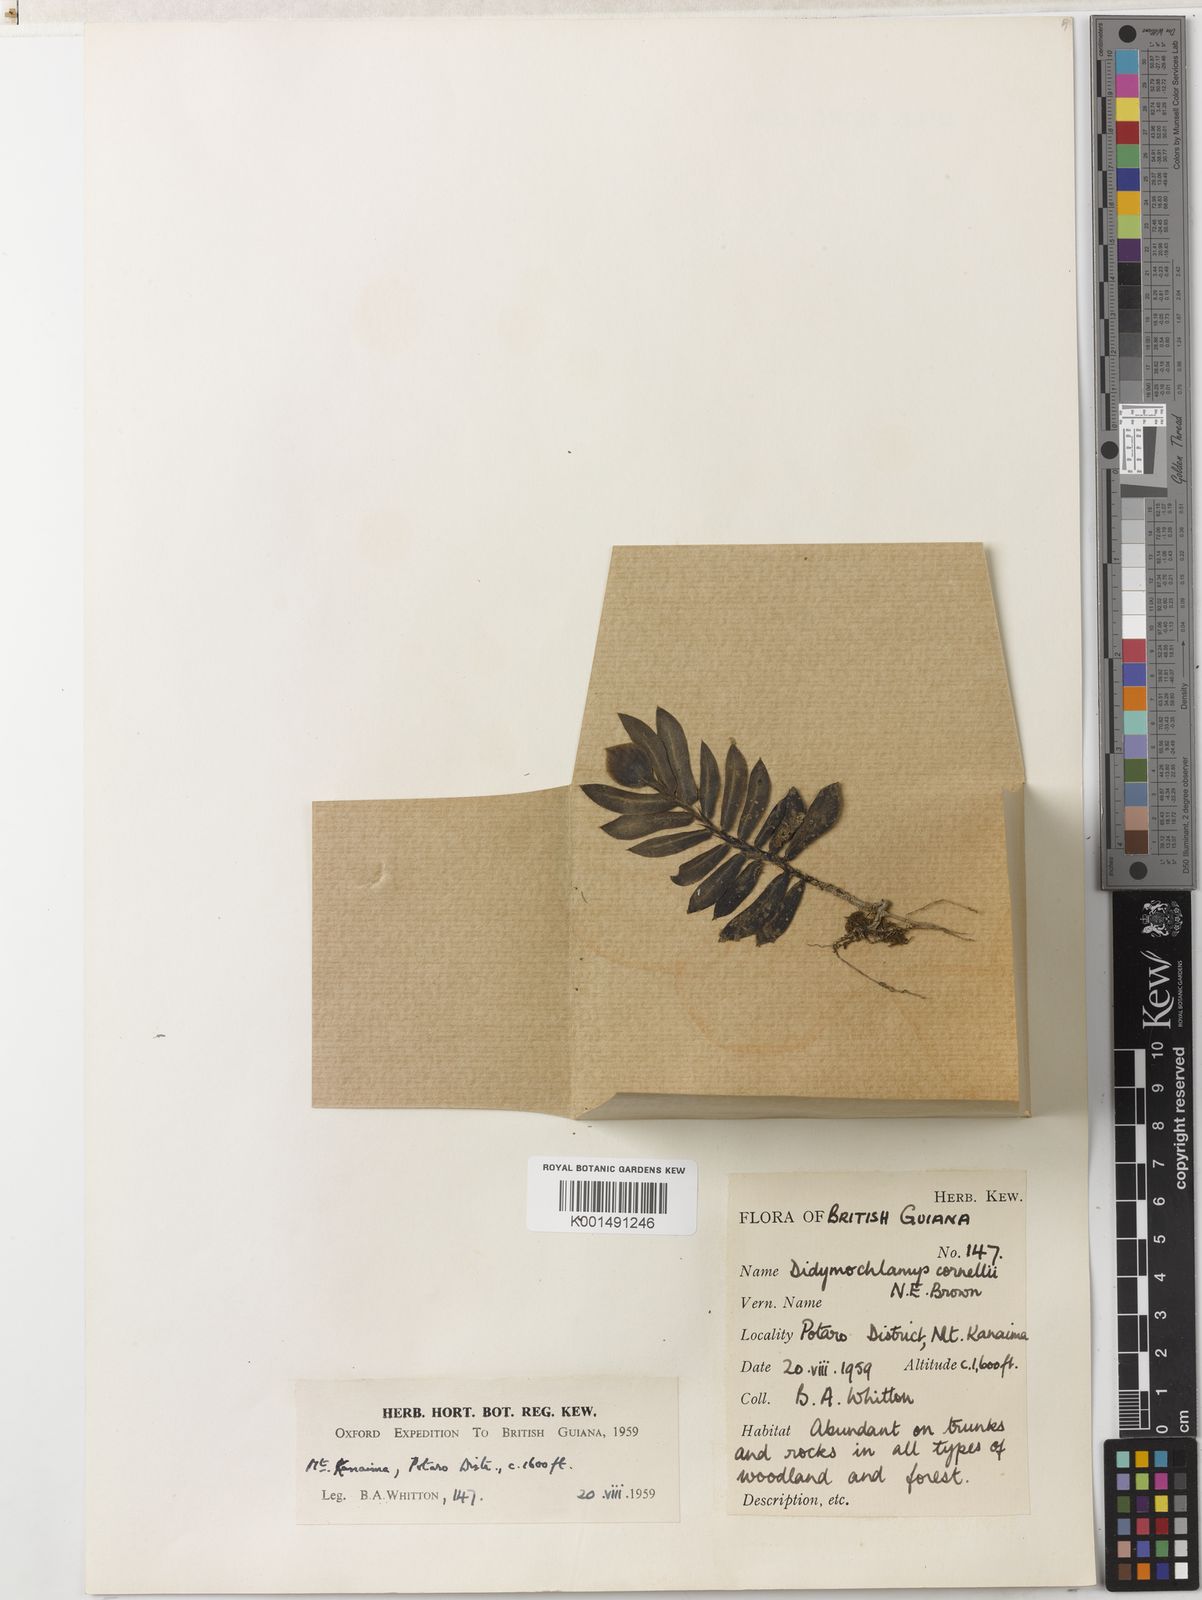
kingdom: Plantae
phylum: Tracheophyta
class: Magnoliopsida
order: Gentianales
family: Rubiaceae
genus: Didymochlamys
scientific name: Didymochlamys connellii
